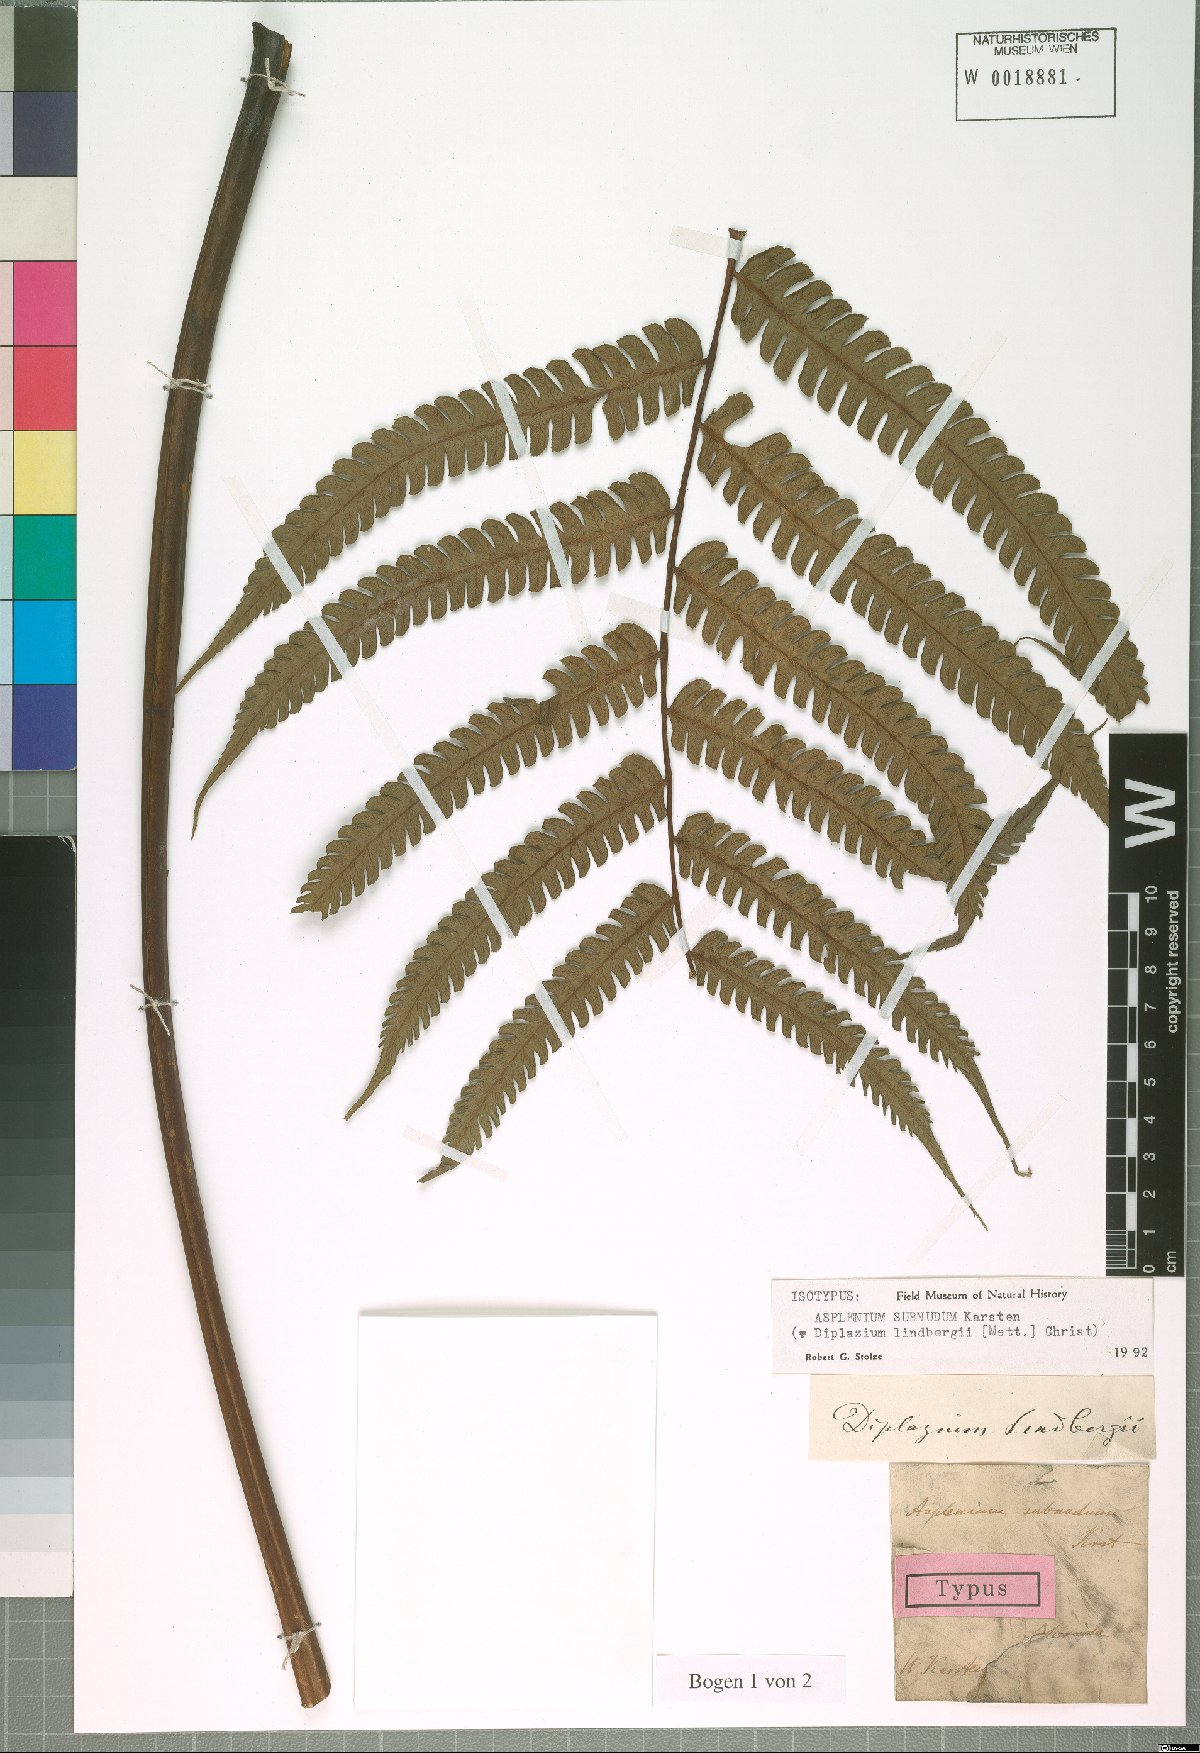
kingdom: Plantae
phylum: Tracheophyta
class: Polypodiopsida
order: Polypodiales
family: Athyriaceae
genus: Diplazium
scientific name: Diplazium lindbergii
